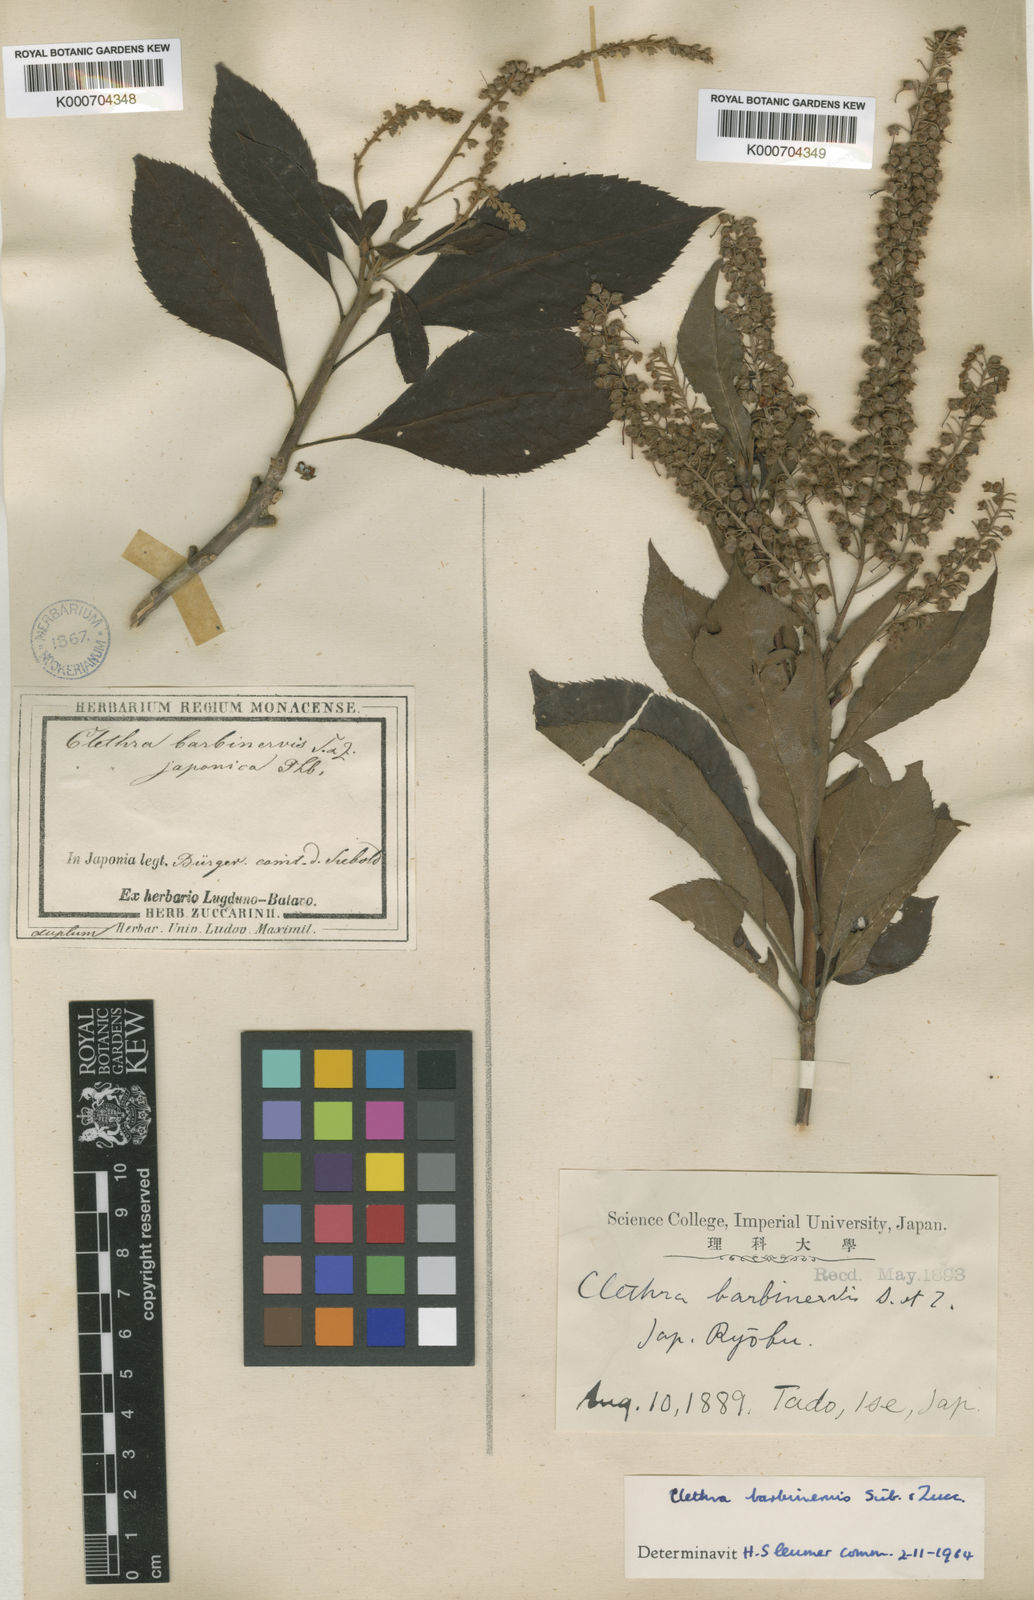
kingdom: Plantae
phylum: Tracheophyta
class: Magnoliopsida
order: Ericales
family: Clethraceae
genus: Clethra
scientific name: Clethra barbinervis
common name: Japanese clethra
